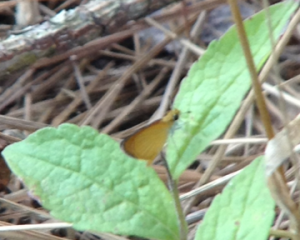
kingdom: Animalia
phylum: Arthropoda
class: Insecta
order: Lepidoptera
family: Hesperiidae
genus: Ancyloxypha
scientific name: Ancyloxypha numitor
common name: Least Skipper
